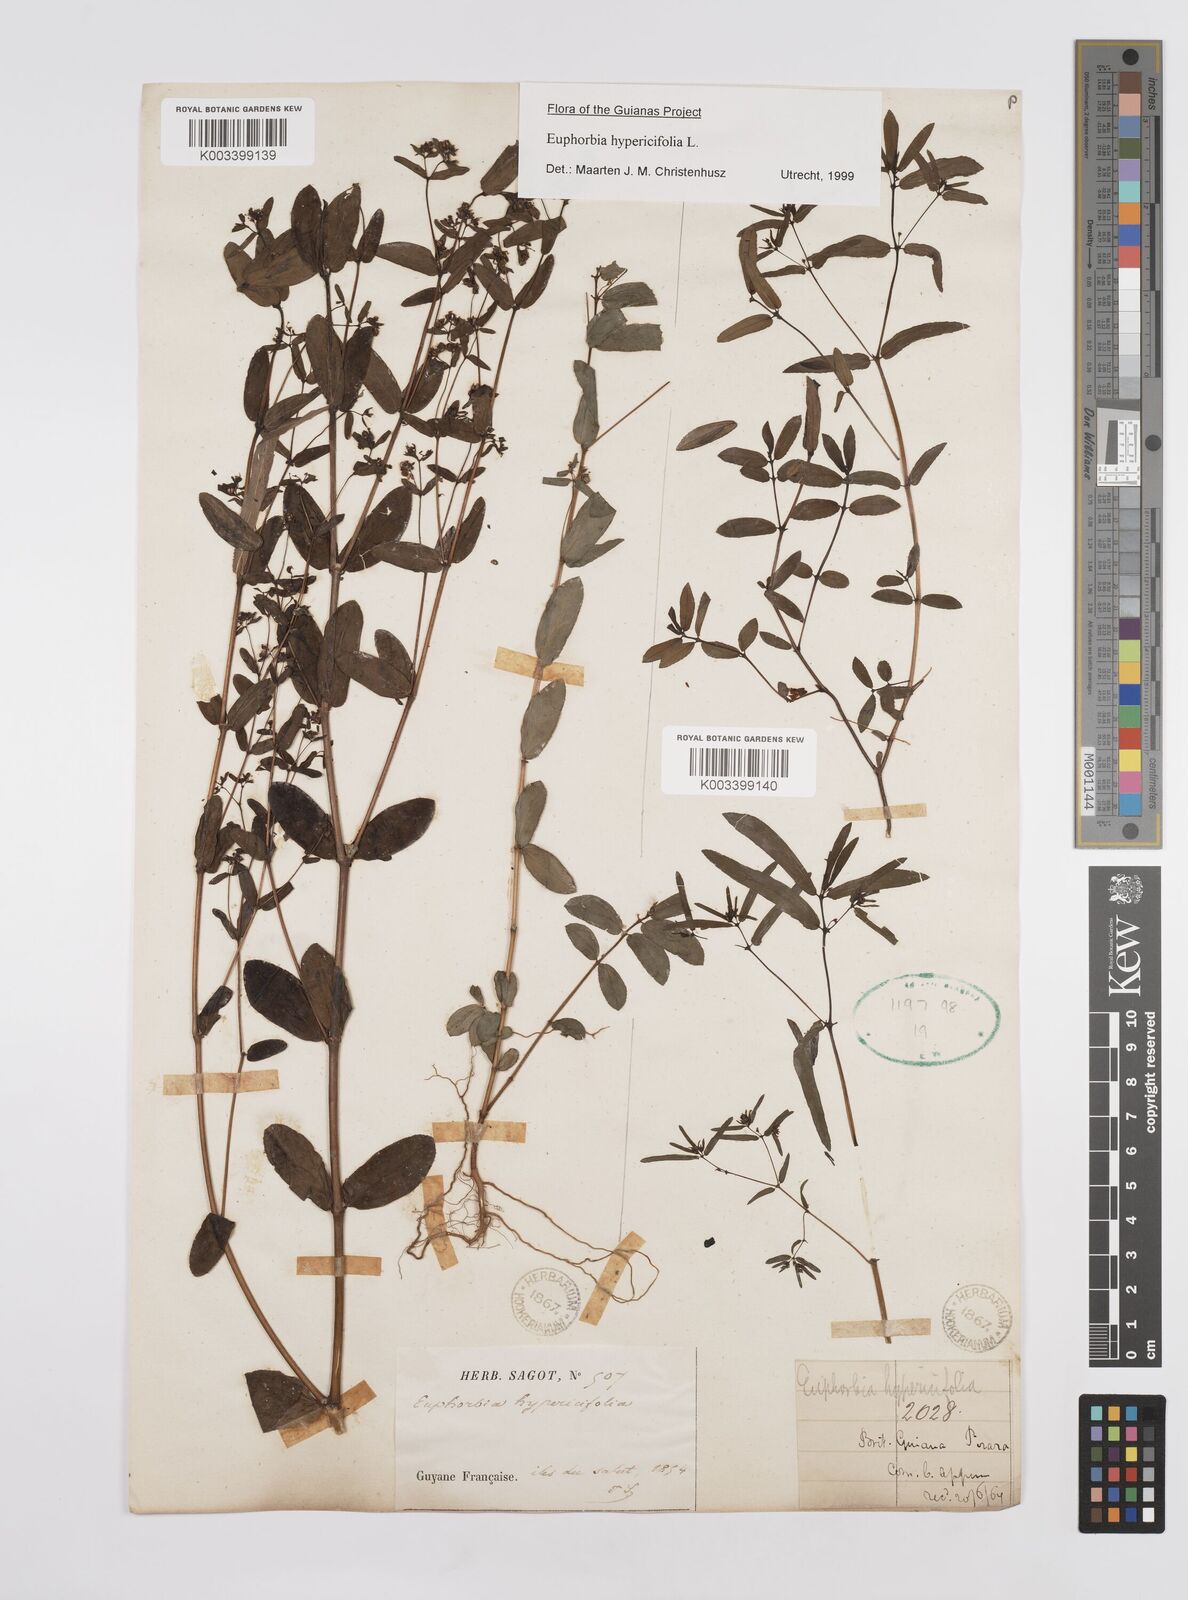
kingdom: Plantae
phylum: Tracheophyta
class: Magnoliopsida
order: Malpighiales
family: Euphorbiaceae
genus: Euphorbia
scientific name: Euphorbia hypericifolia
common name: Graceful sandmat
